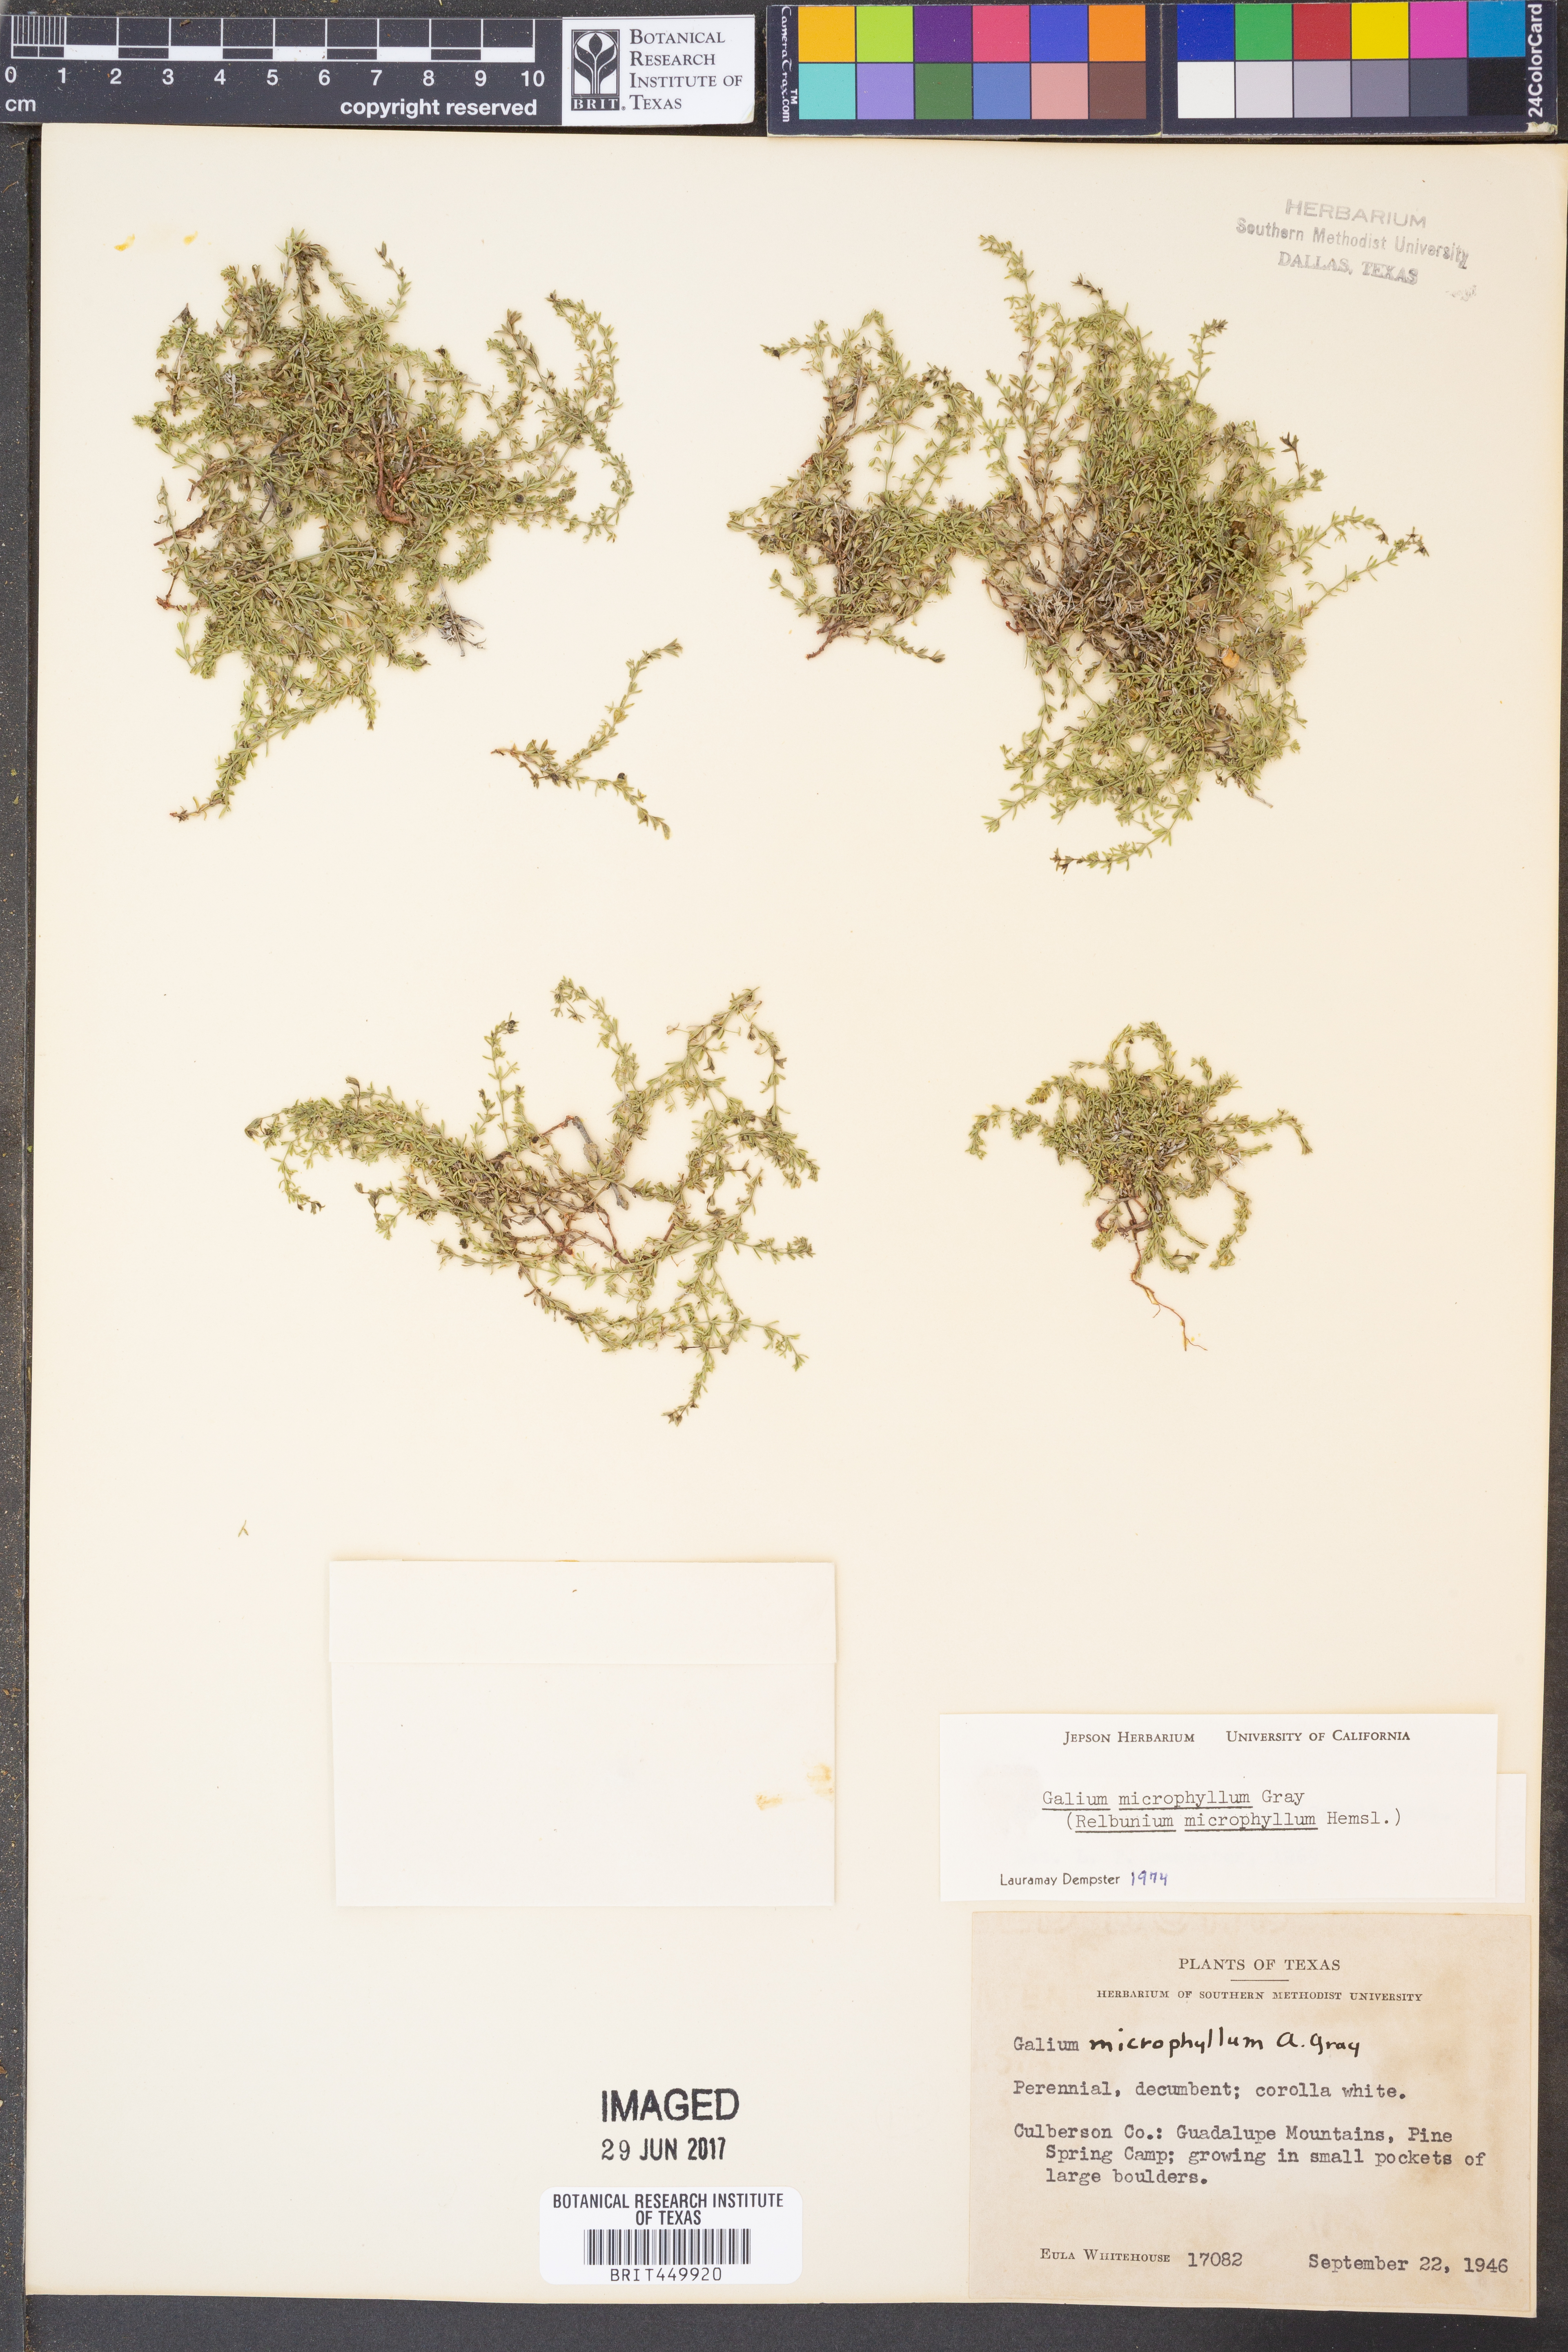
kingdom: Plantae
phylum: Tracheophyta
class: Magnoliopsida
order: Gentianales
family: Rubiaceae
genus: Galium
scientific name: Galium microphyllum
